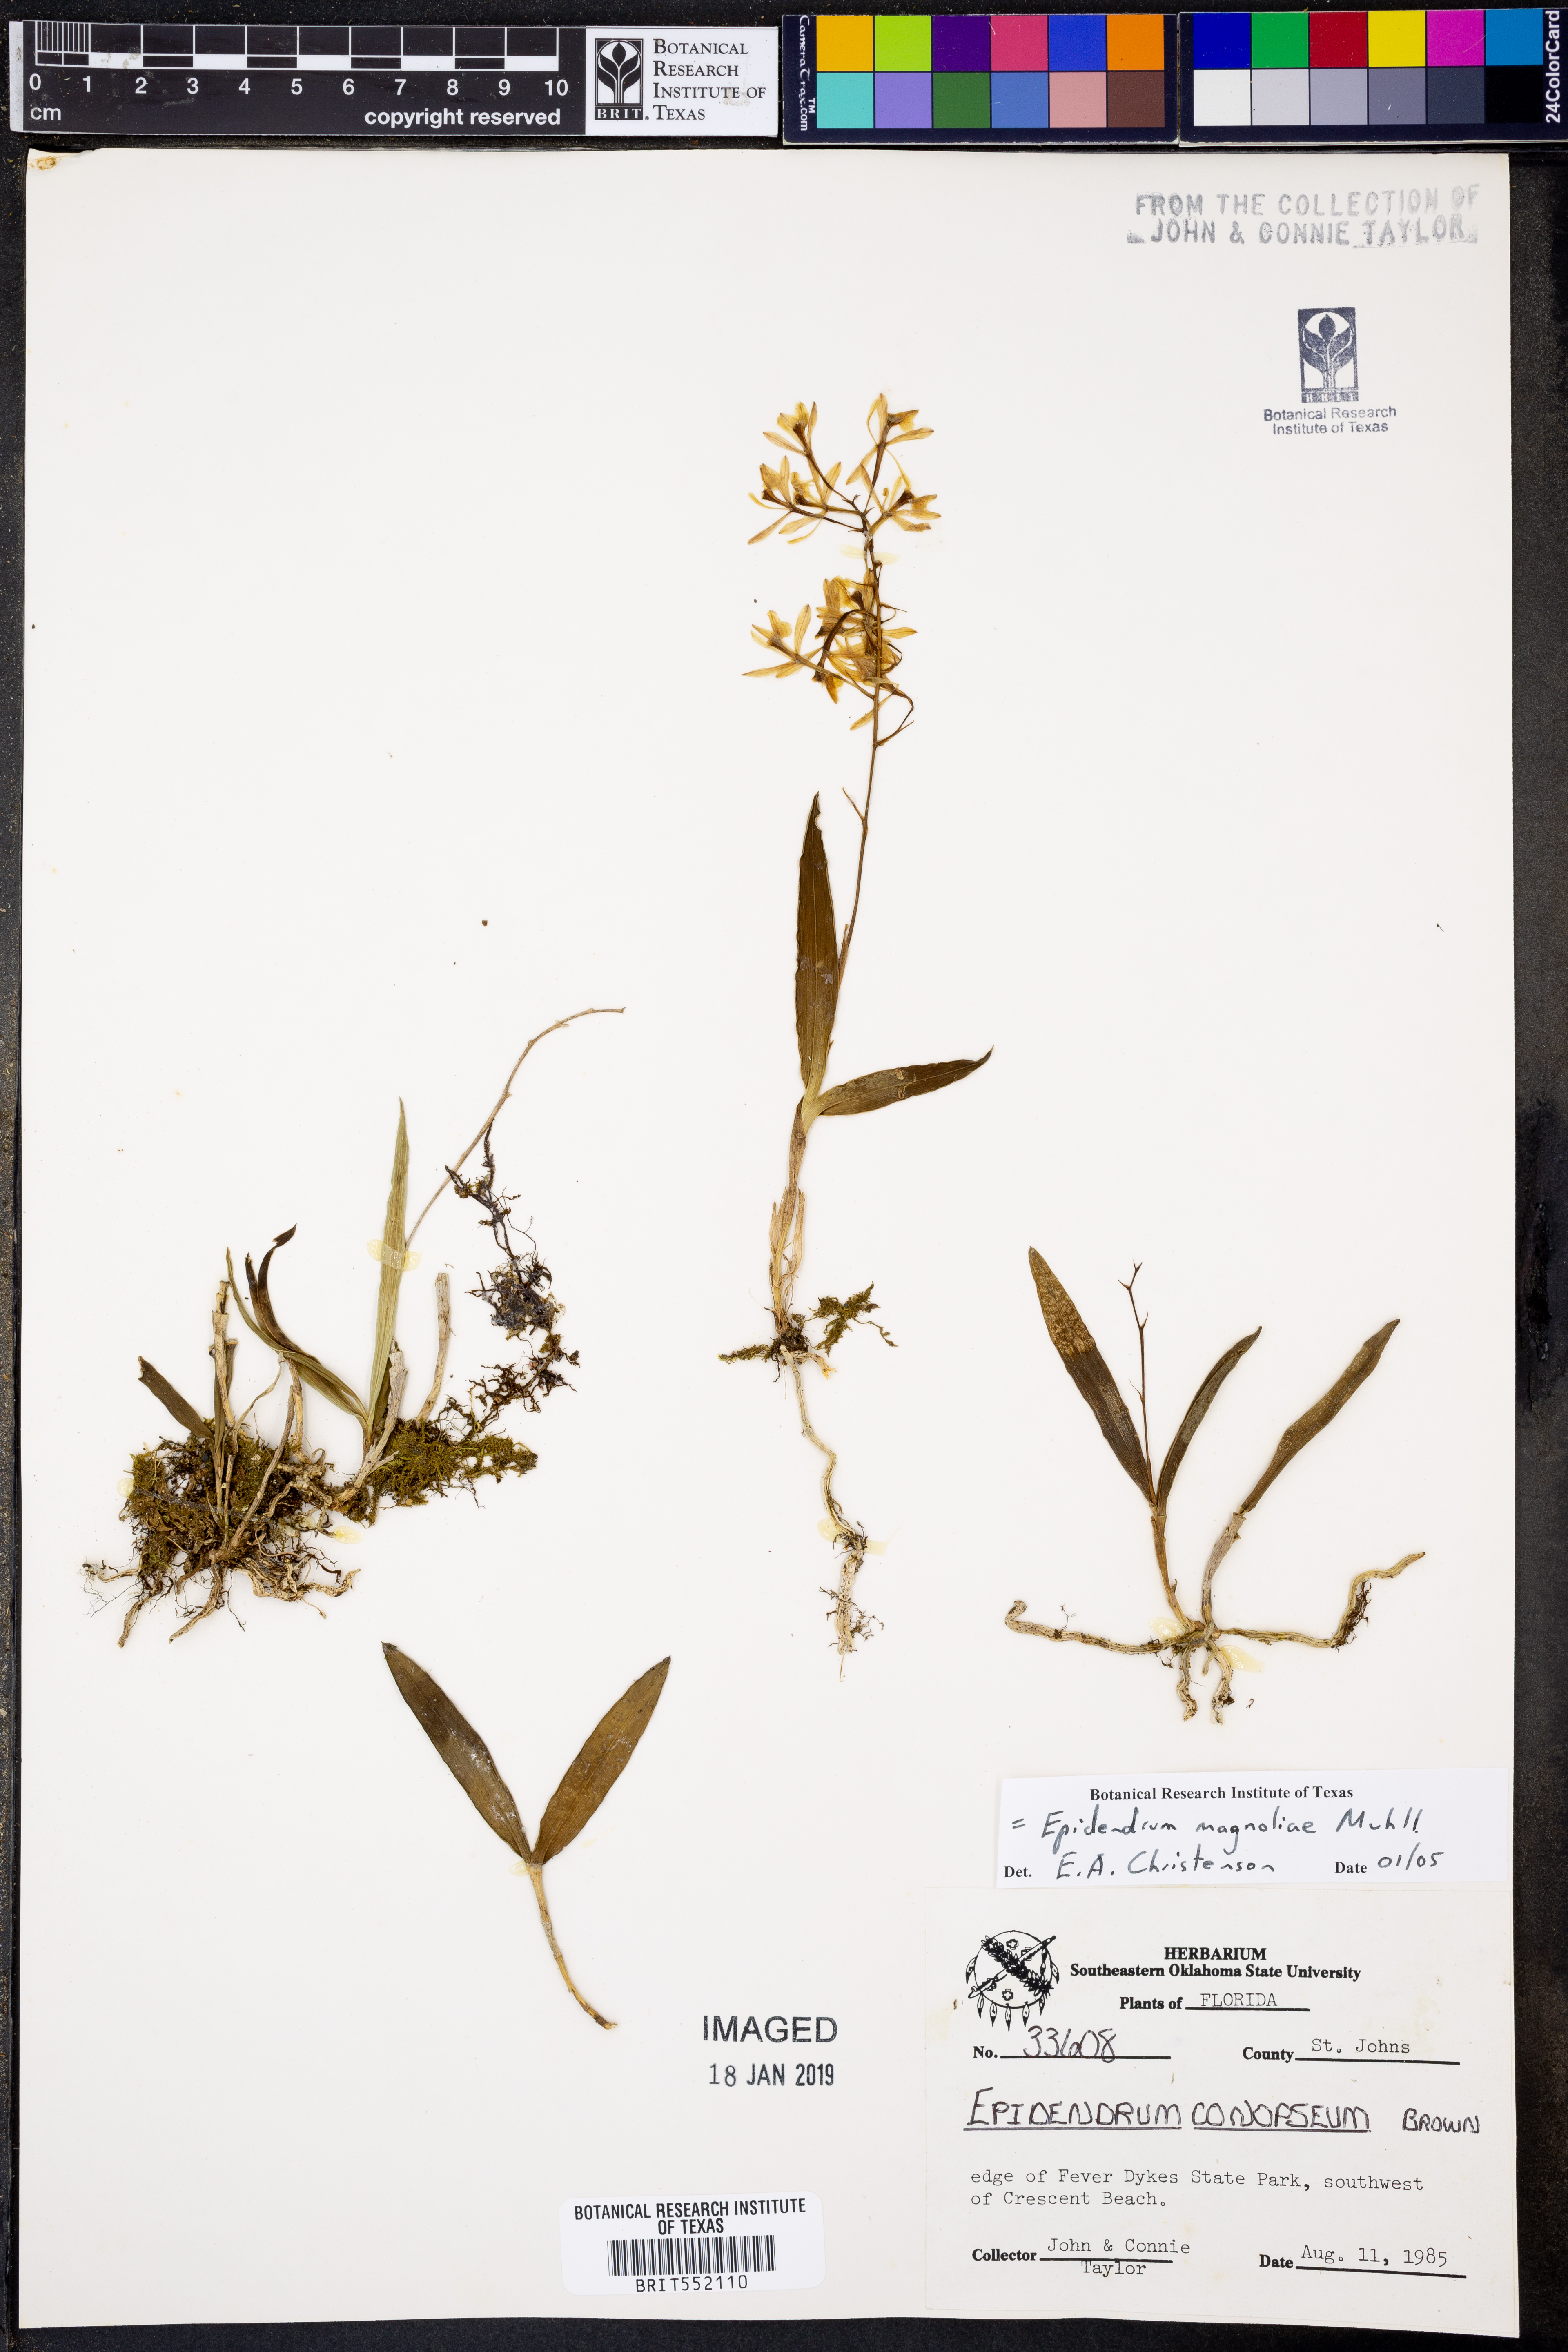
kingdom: Plantae
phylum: Tracheophyta
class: Liliopsida
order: Asparagales
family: Orchidaceae
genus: Epidendrum
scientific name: Epidendrum magnoliae
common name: Green fly orchid
